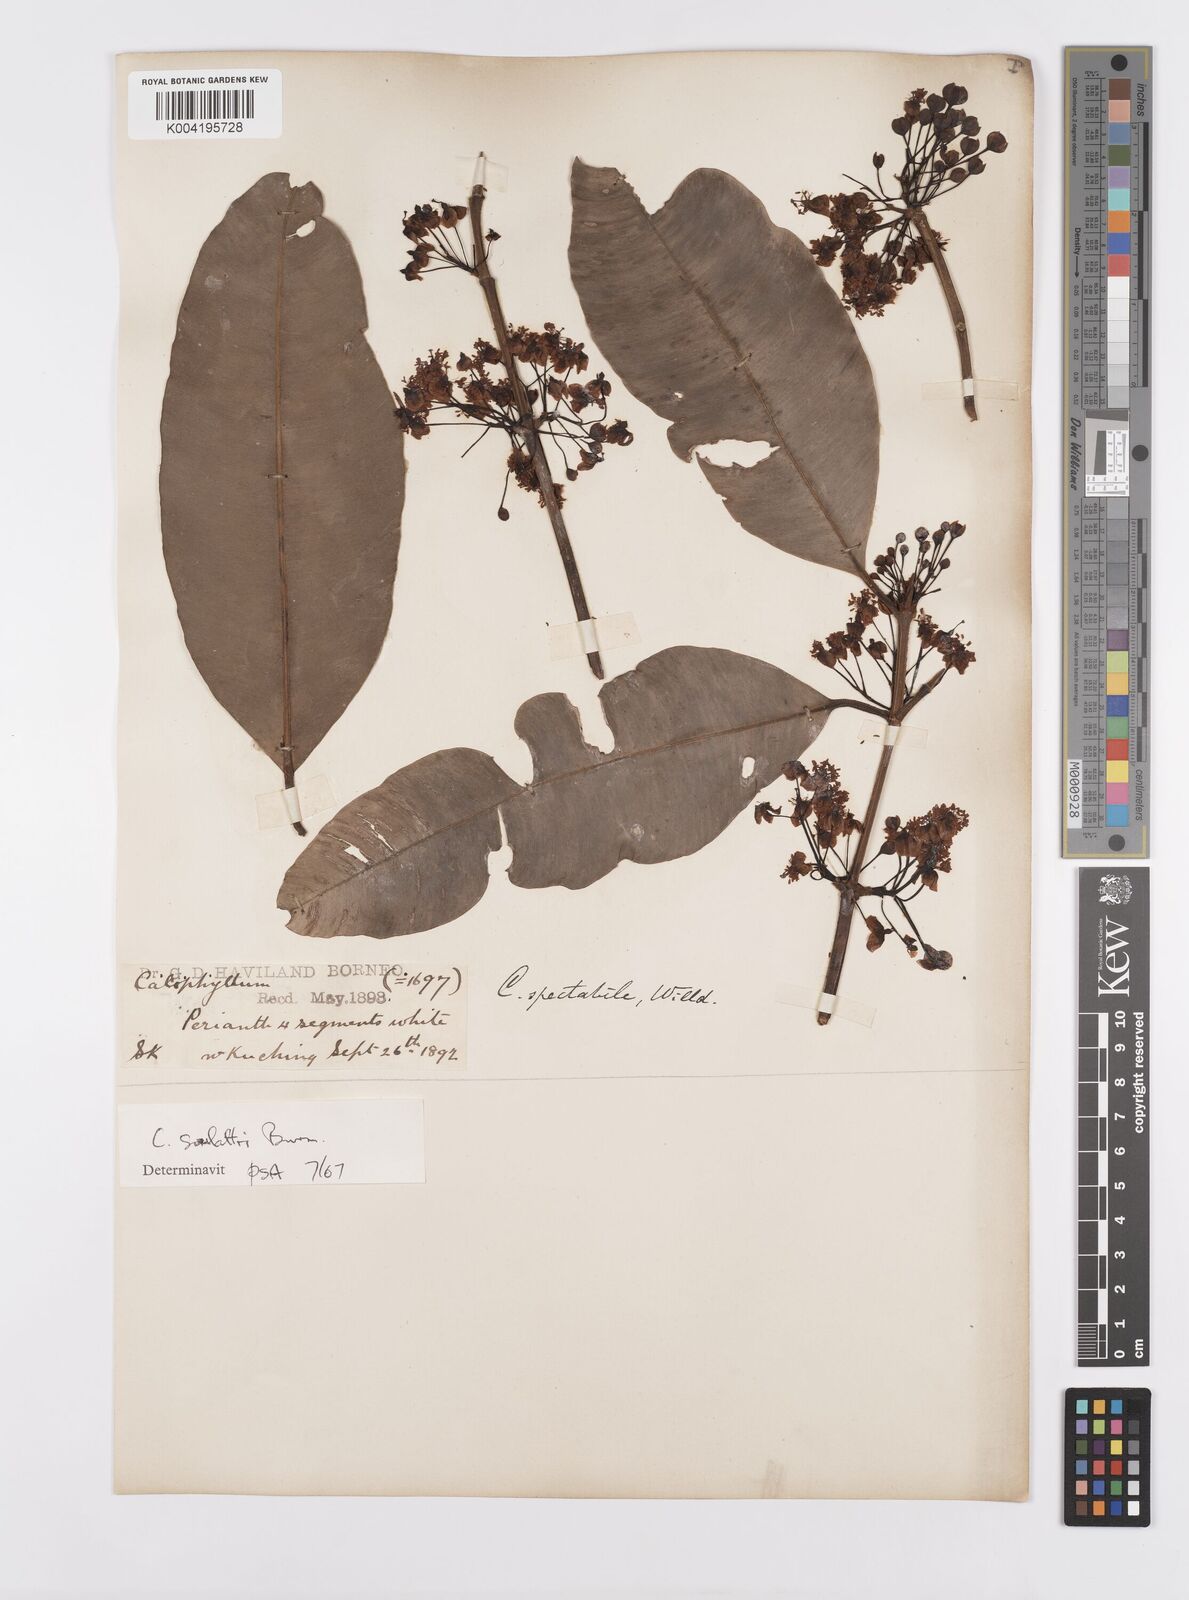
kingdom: Plantae
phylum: Tracheophyta
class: Magnoliopsida
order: Malpighiales
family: Calophyllaceae
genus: Calophyllum
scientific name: Calophyllum soulattri
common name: Bitangoor boonot
